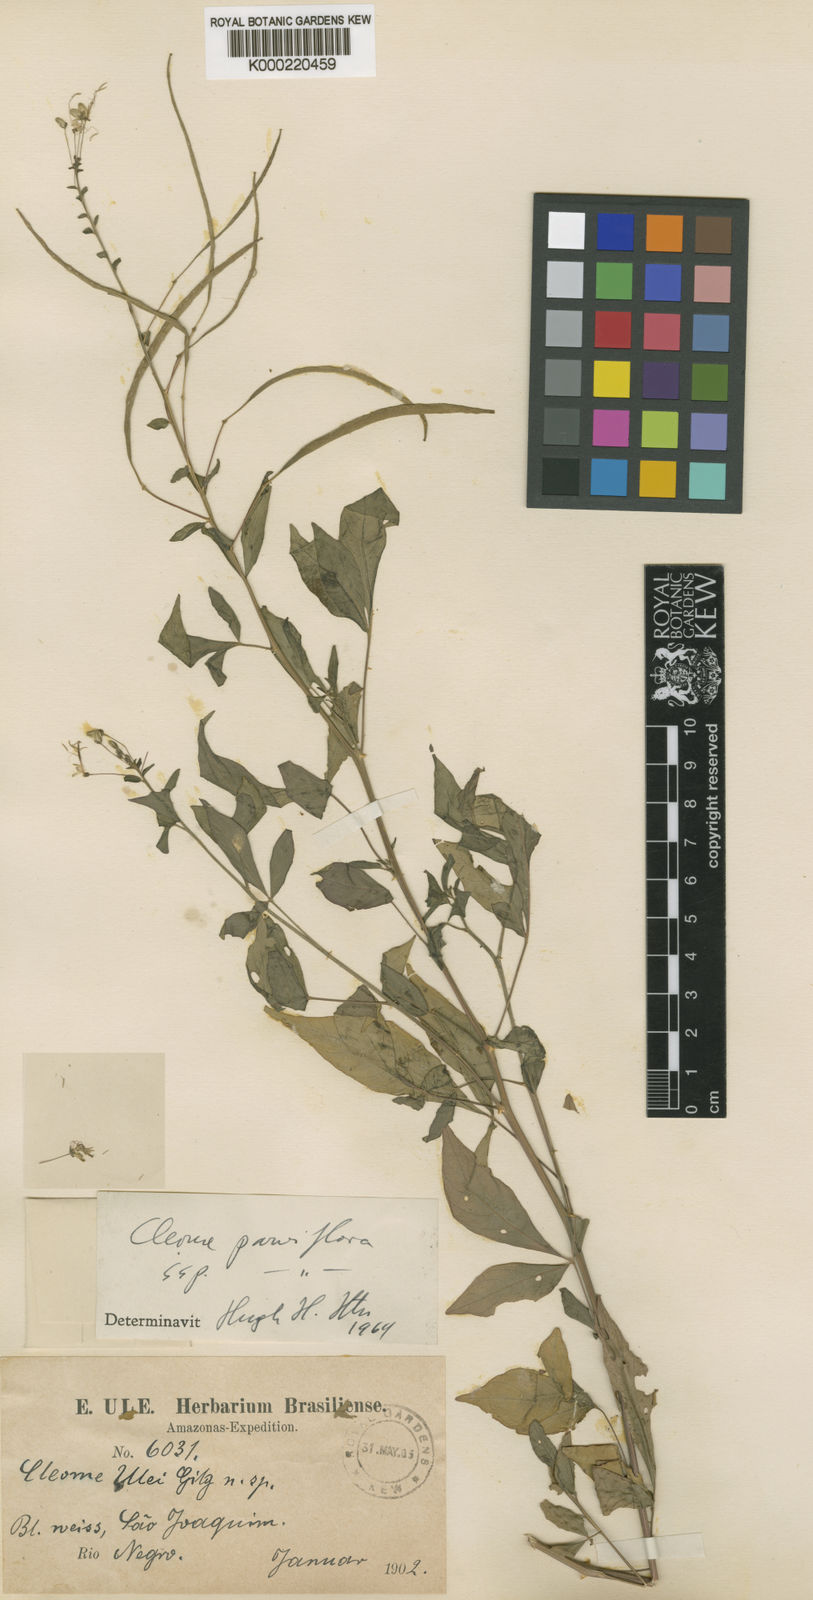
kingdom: Plantae
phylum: Tracheophyta
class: Magnoliopsida
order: Brassicales
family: Cleomaceae
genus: Tarenaya
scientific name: Tarenaya parviflora
